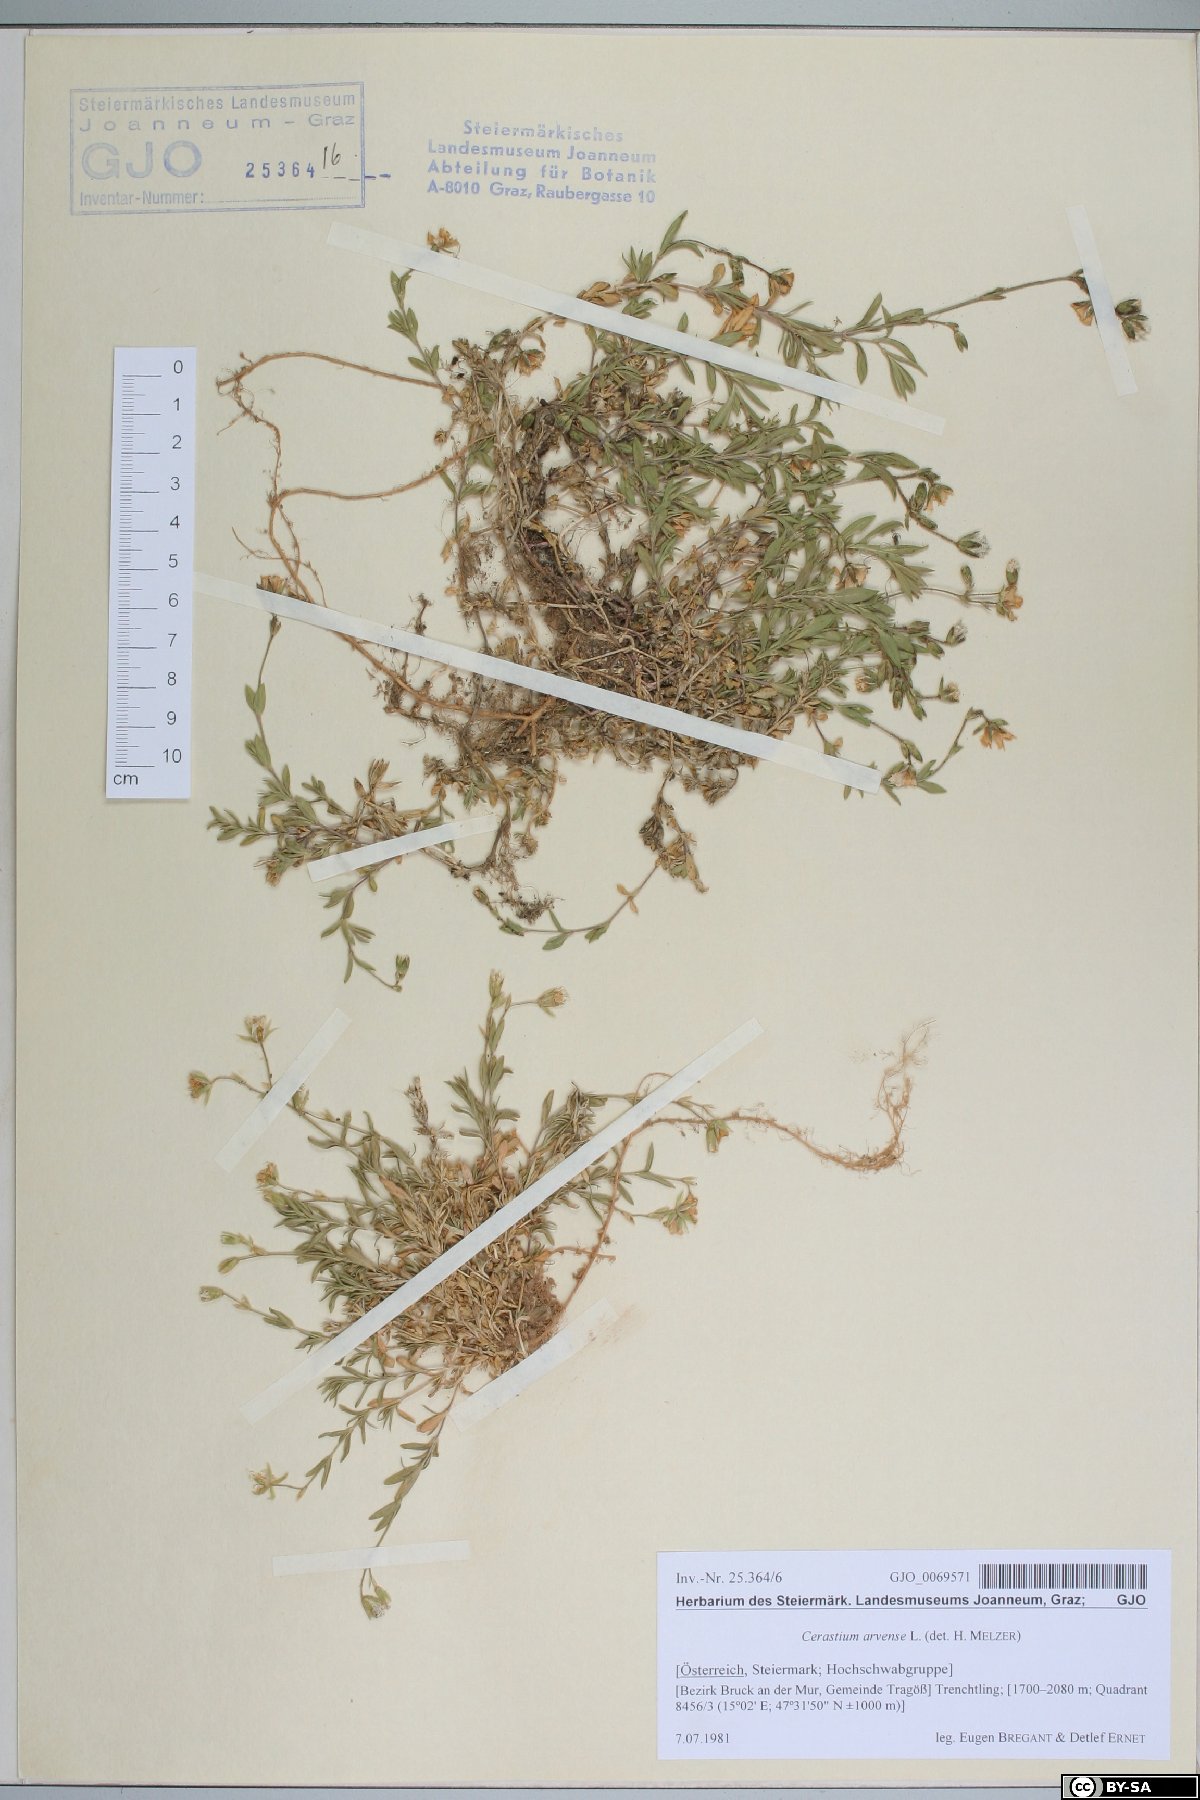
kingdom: Plantae
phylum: Tracheophyta
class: Magnoliopsida
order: Caryophyllales
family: Caryophyllaceae
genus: Cerastium
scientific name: Cerastium arvense
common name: Field mouse-ear
